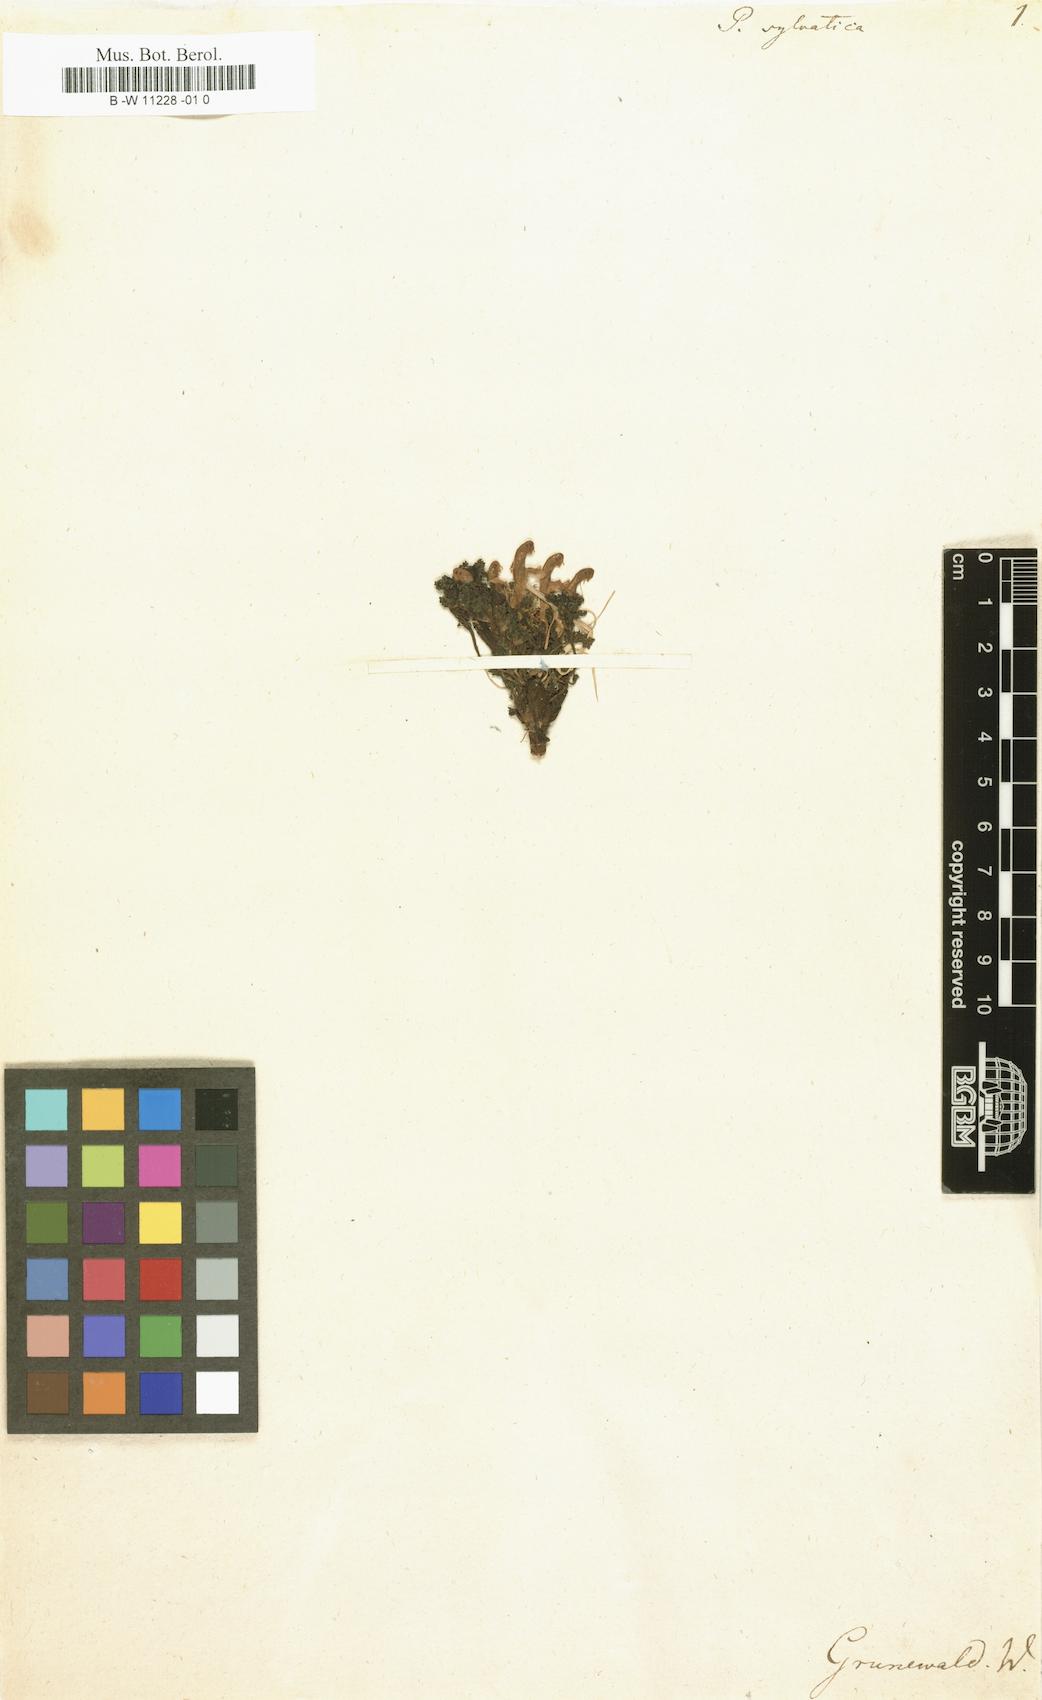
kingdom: Plantae
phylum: Tracheophyta
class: Magnoliopsida
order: Lamiales
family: Orobanchaceae
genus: Pedicularis
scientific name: Pedicularis sylvatica
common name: Lousewort
